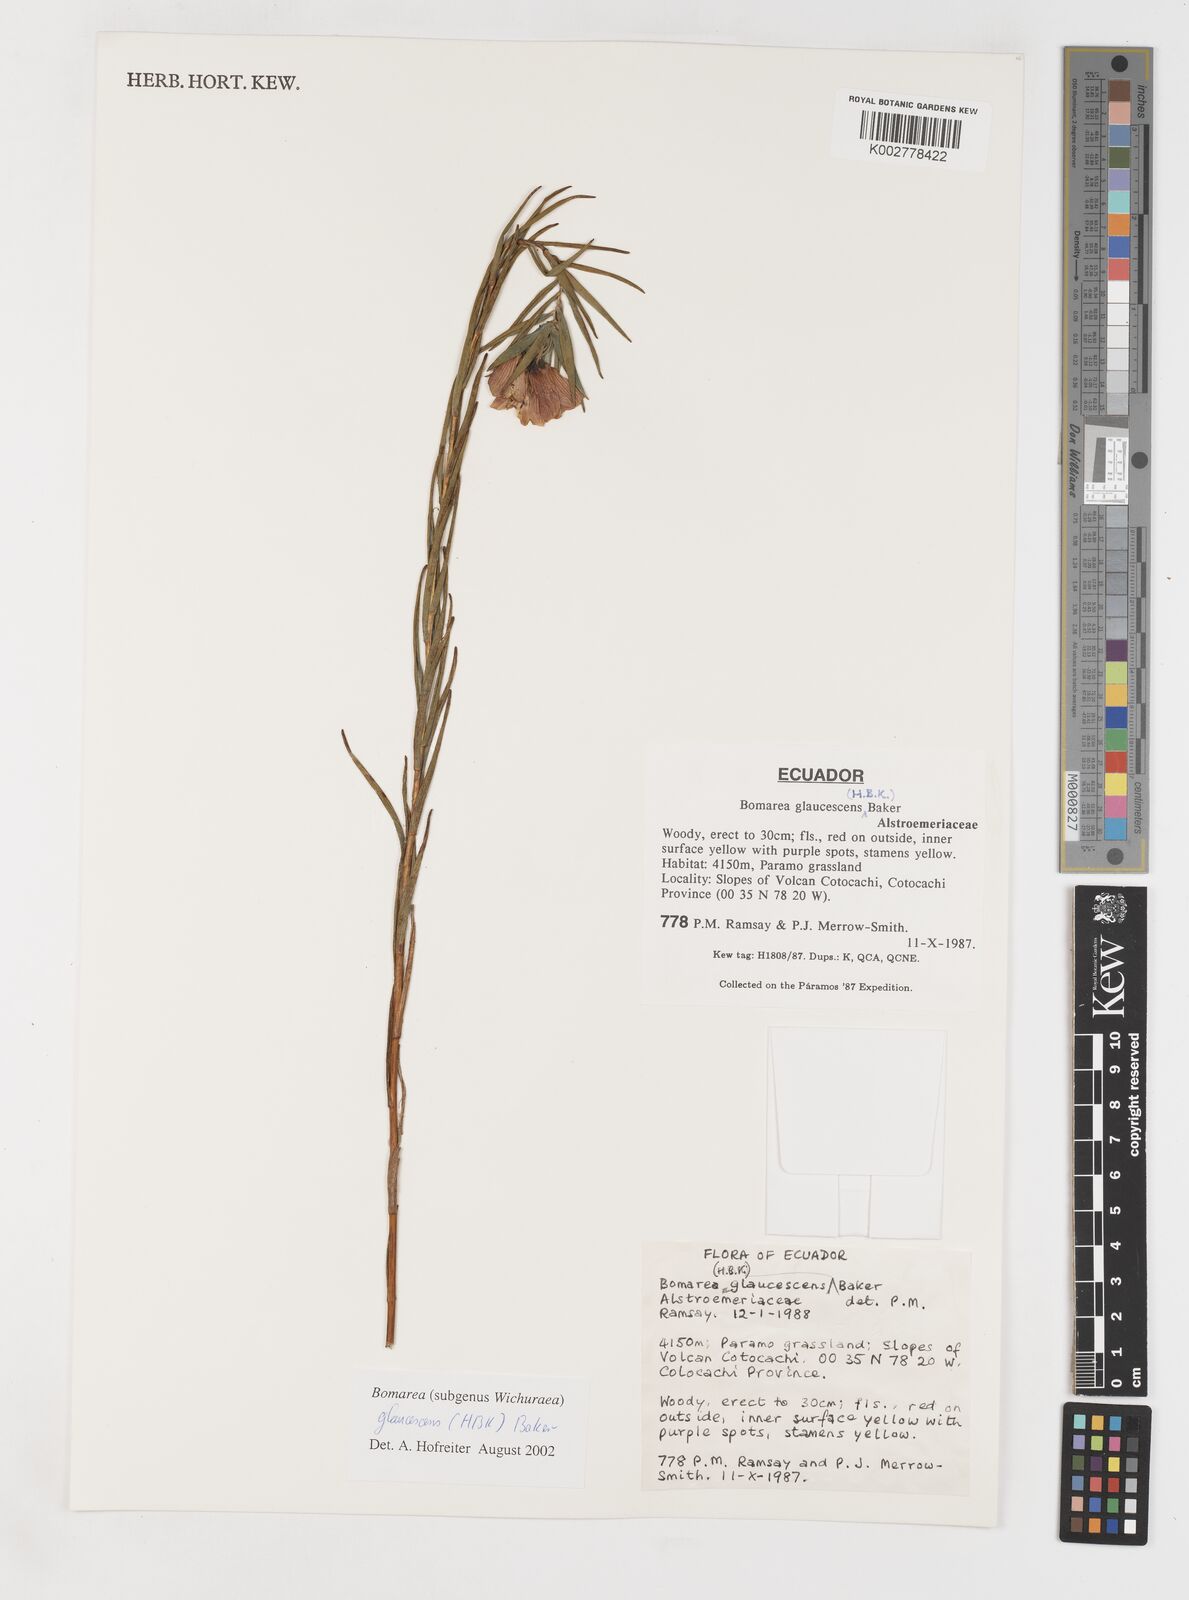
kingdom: Plantae
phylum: Tracheophyta
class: Liliopsida
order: Liliales
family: Alstroemeriaceae
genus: Bomarea
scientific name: Bomarea glaucescens
